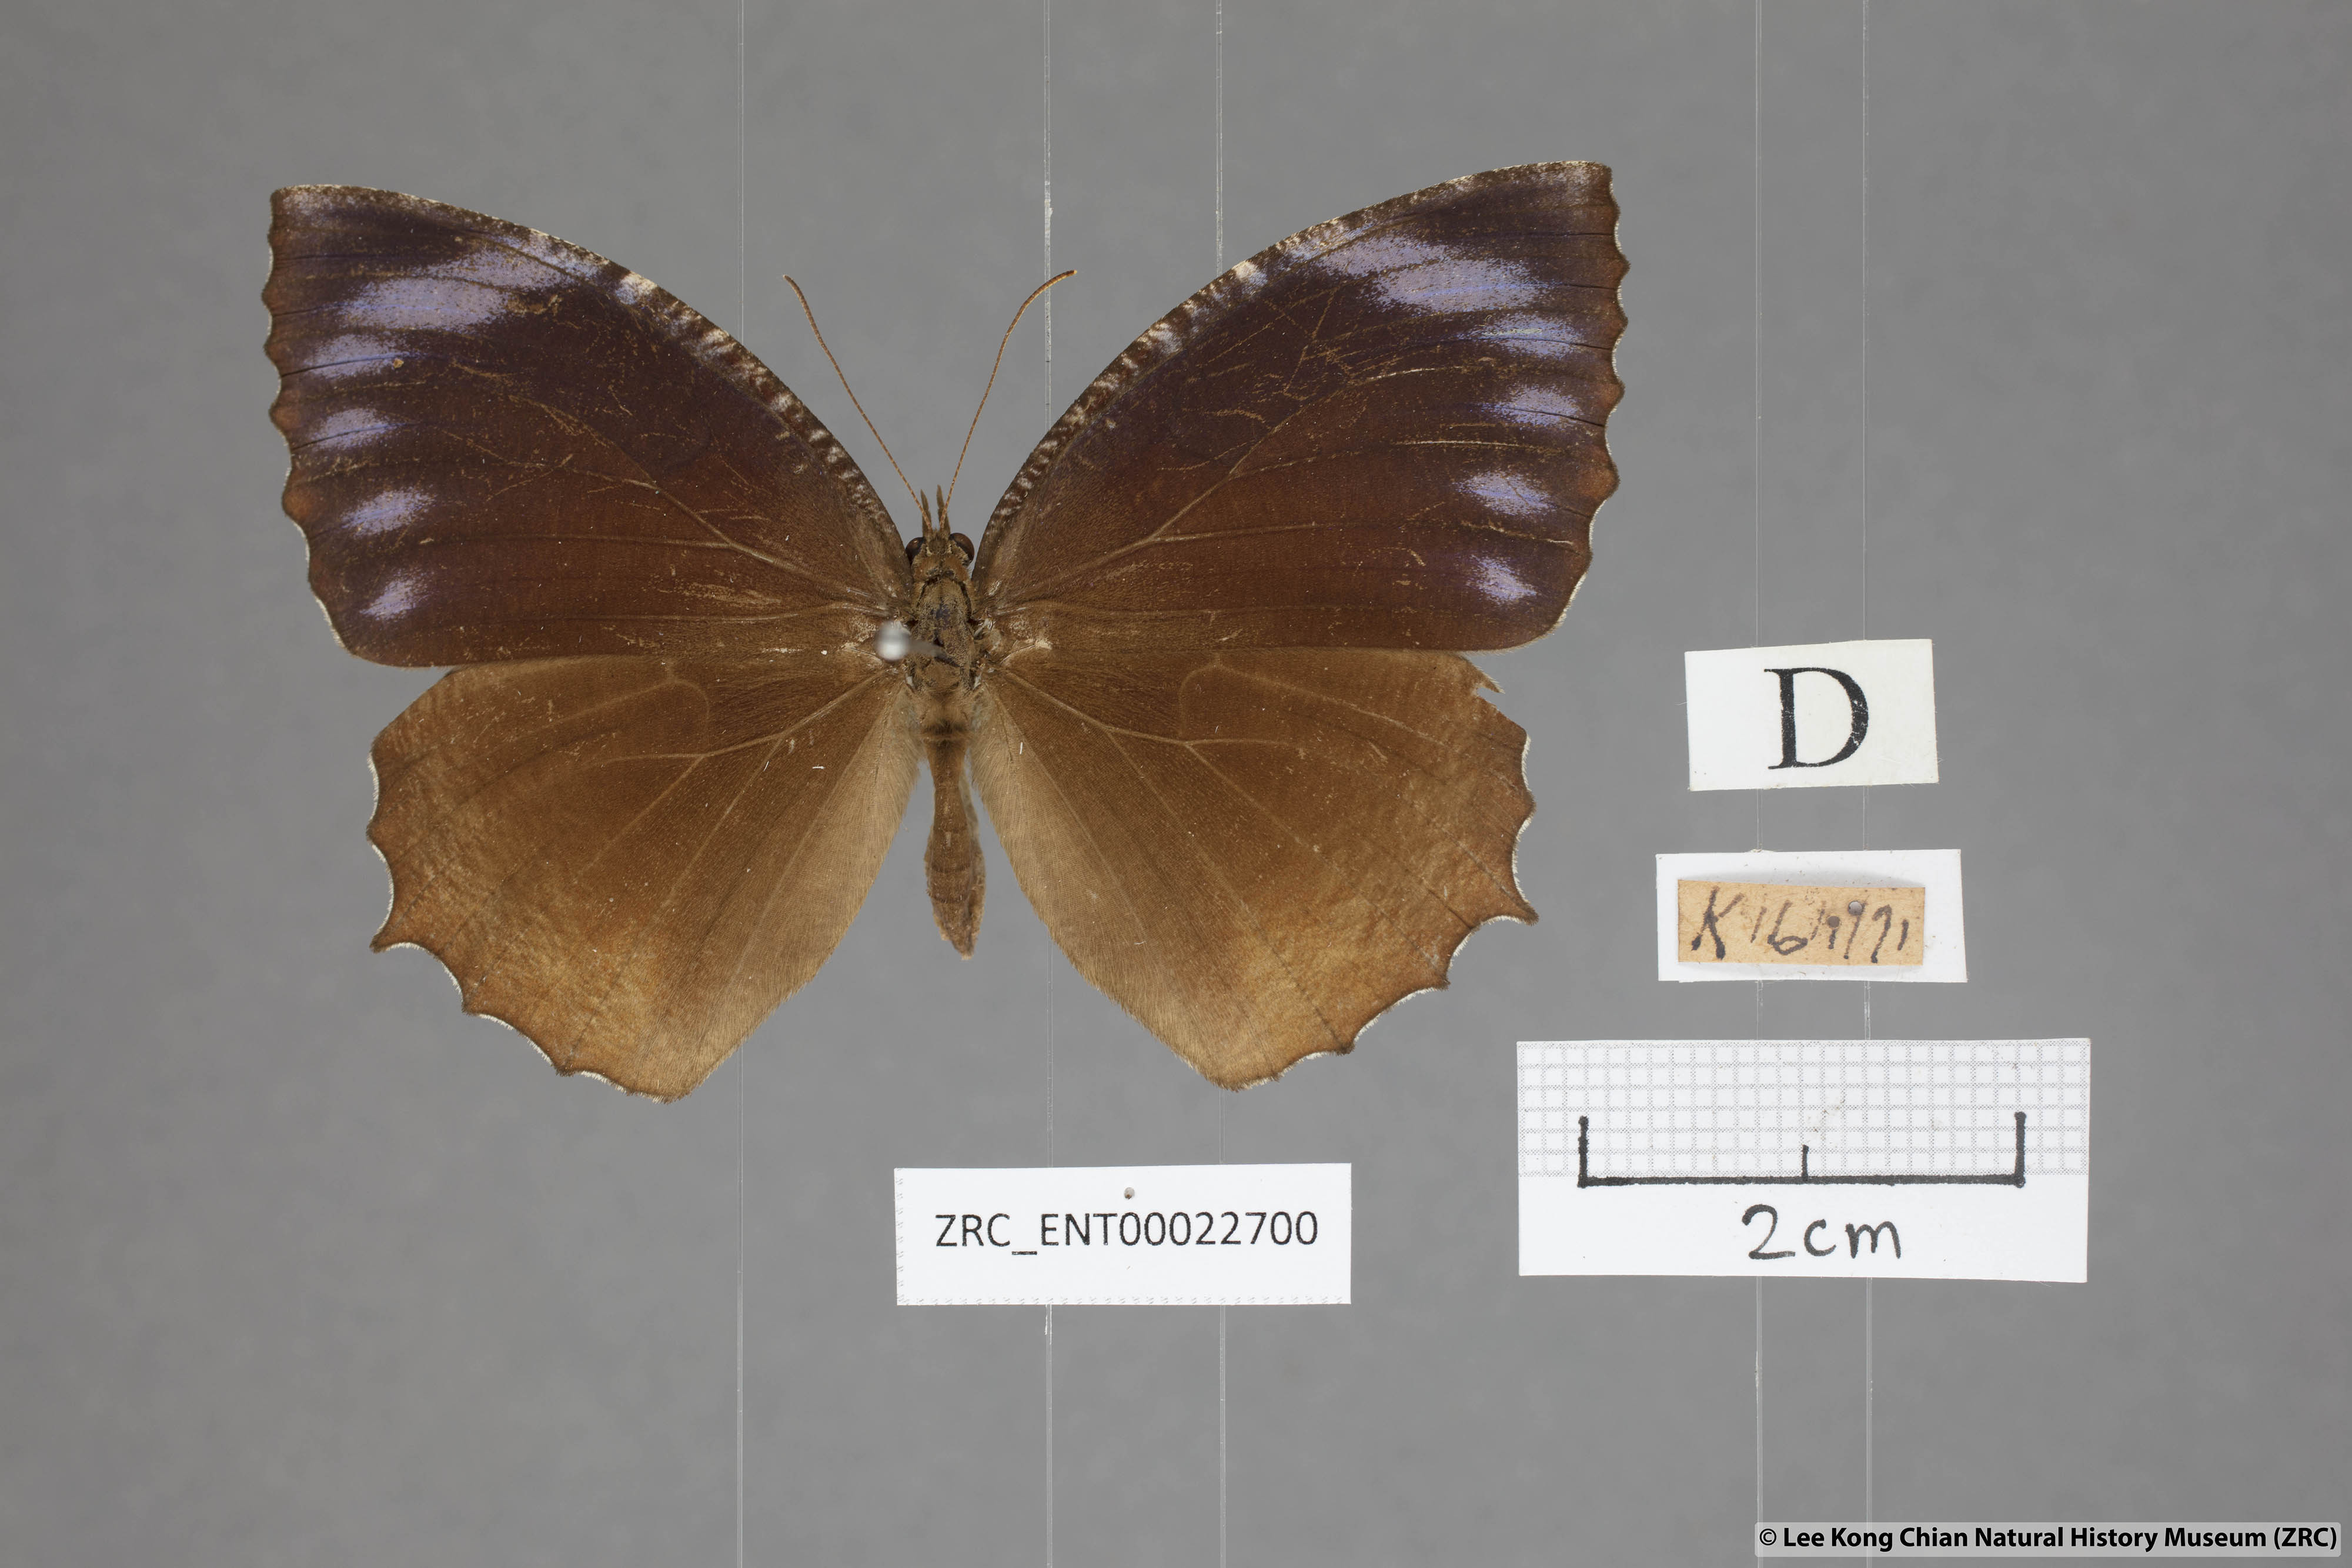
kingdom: Animalia
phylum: Arthropoda
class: Insecta
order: Lepidoptera
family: Nymphalidae
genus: Elymnias
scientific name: Elymnias hypermnestra
